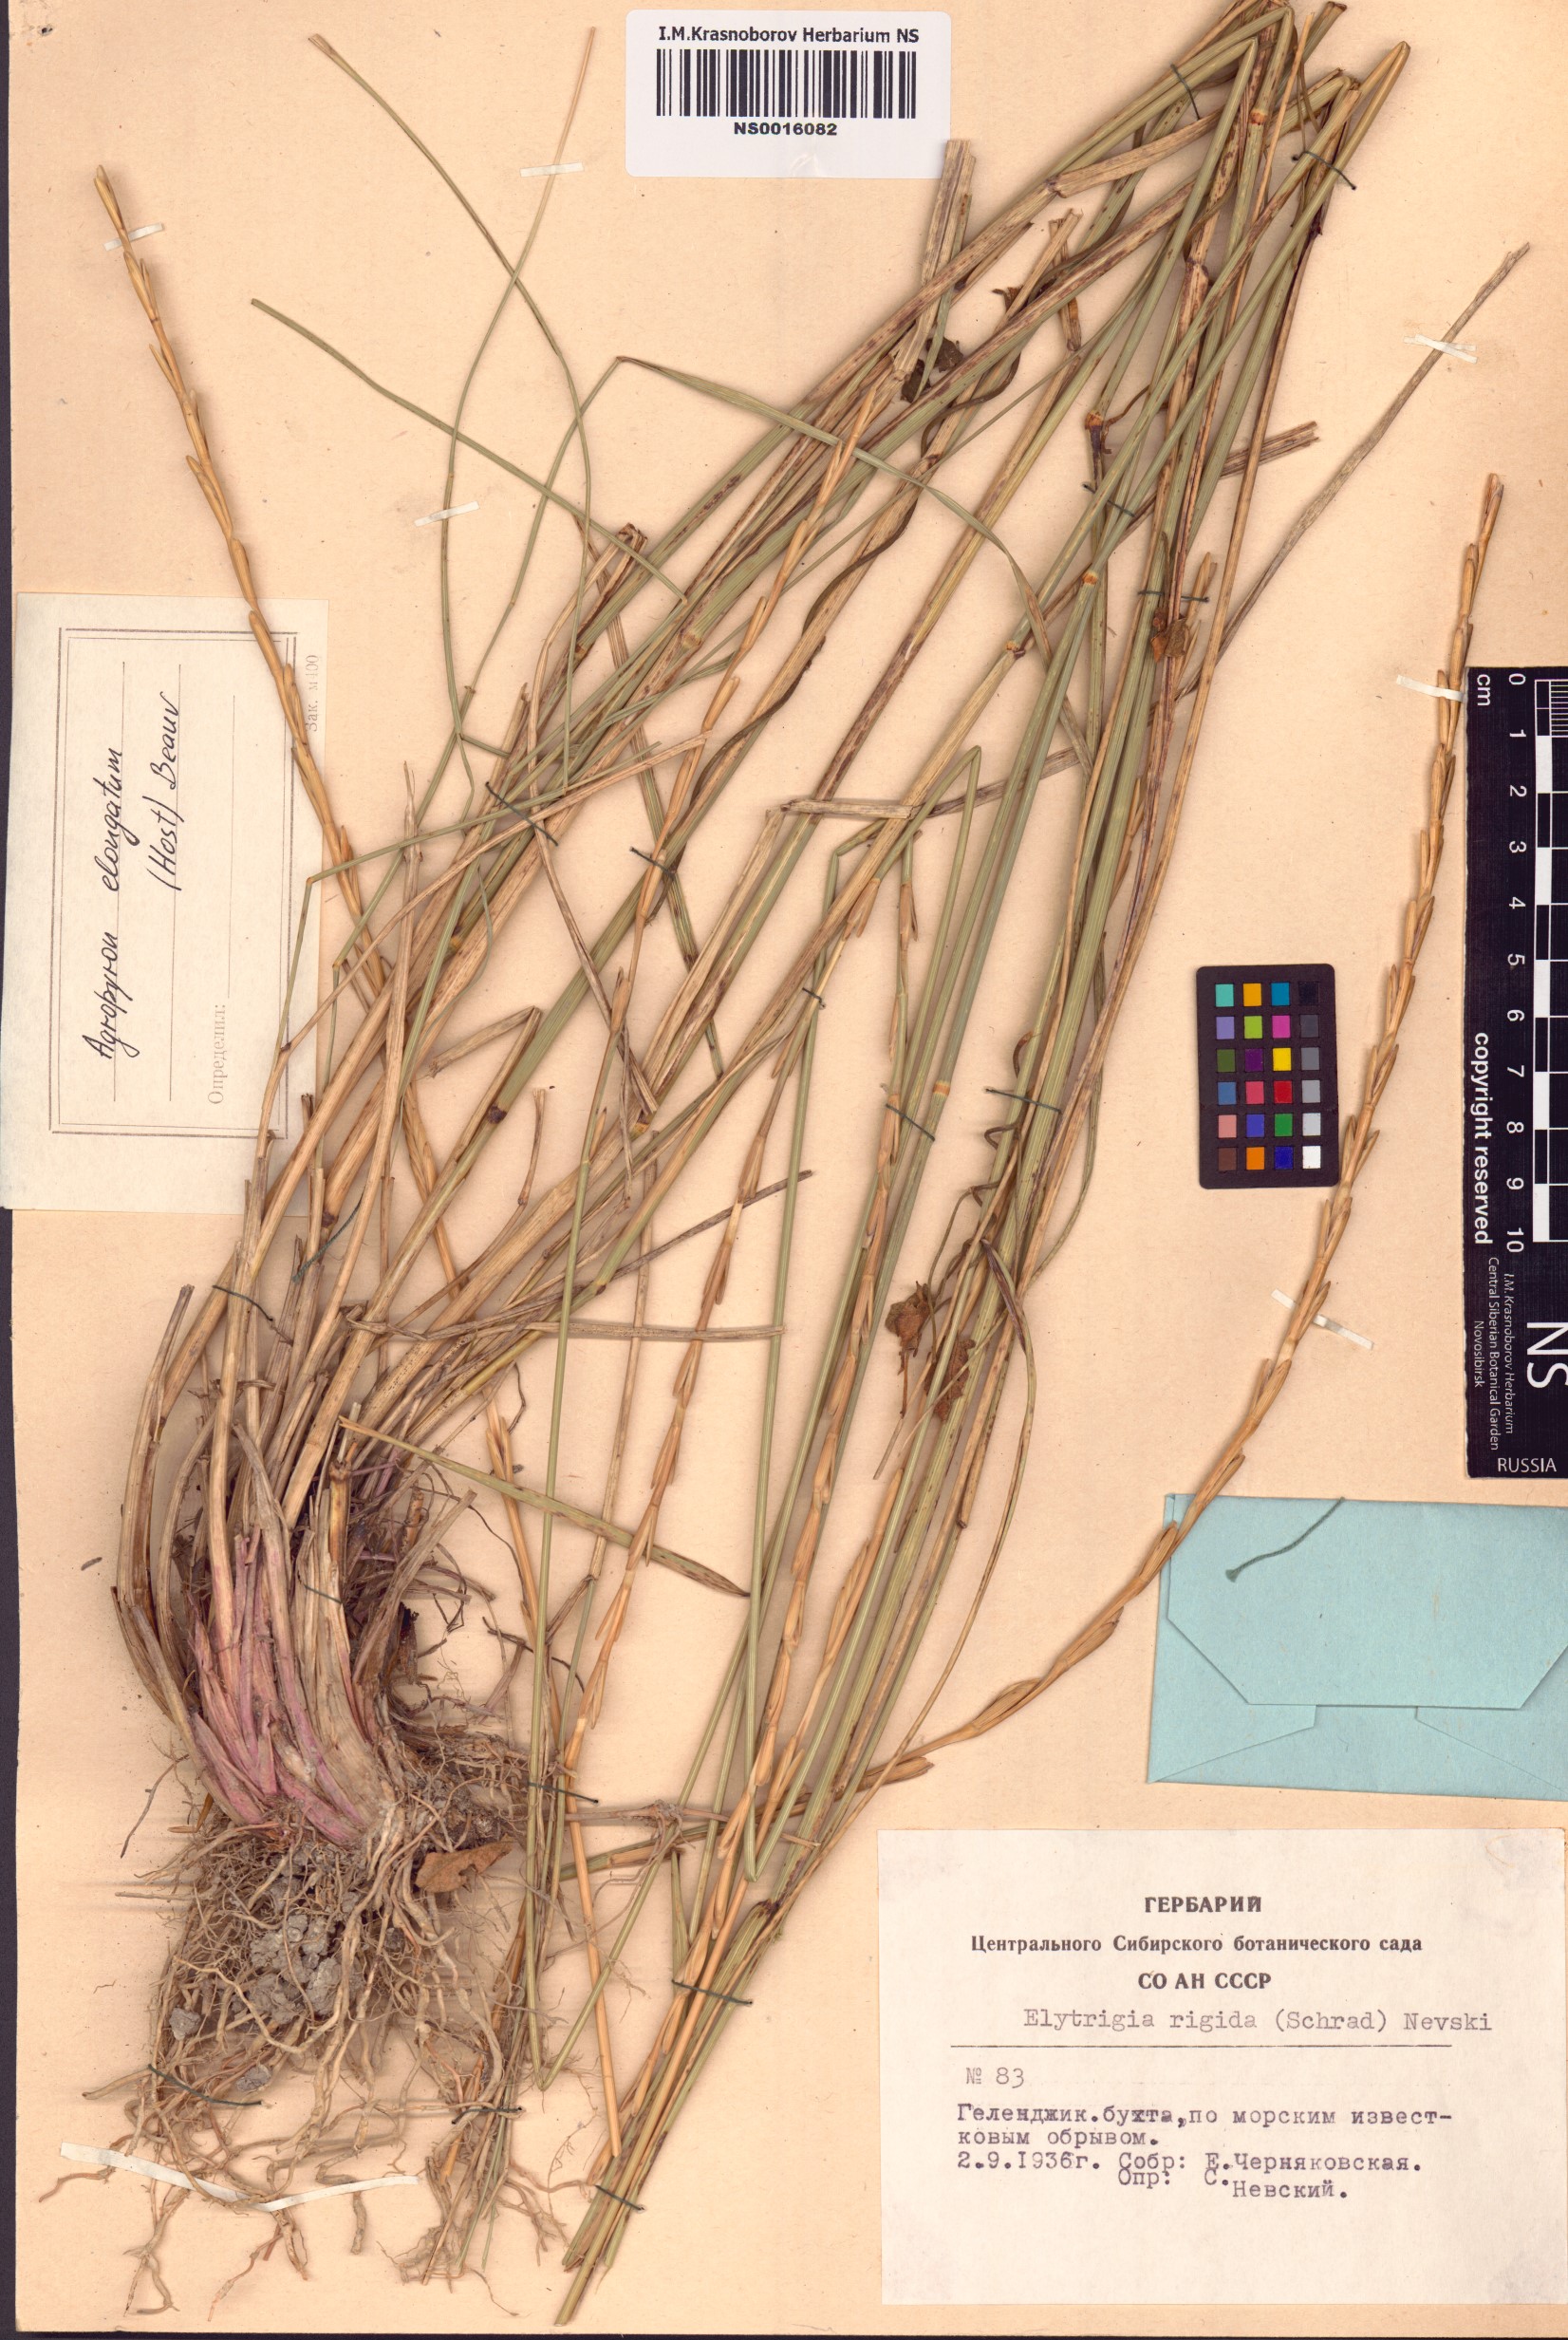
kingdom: Plantae
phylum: Tracheophyta
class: Liliopsida
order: Poales
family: Poaceae
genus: Thinopyrum
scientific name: Thinopyrum elongatum
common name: Tall wheatgrass
